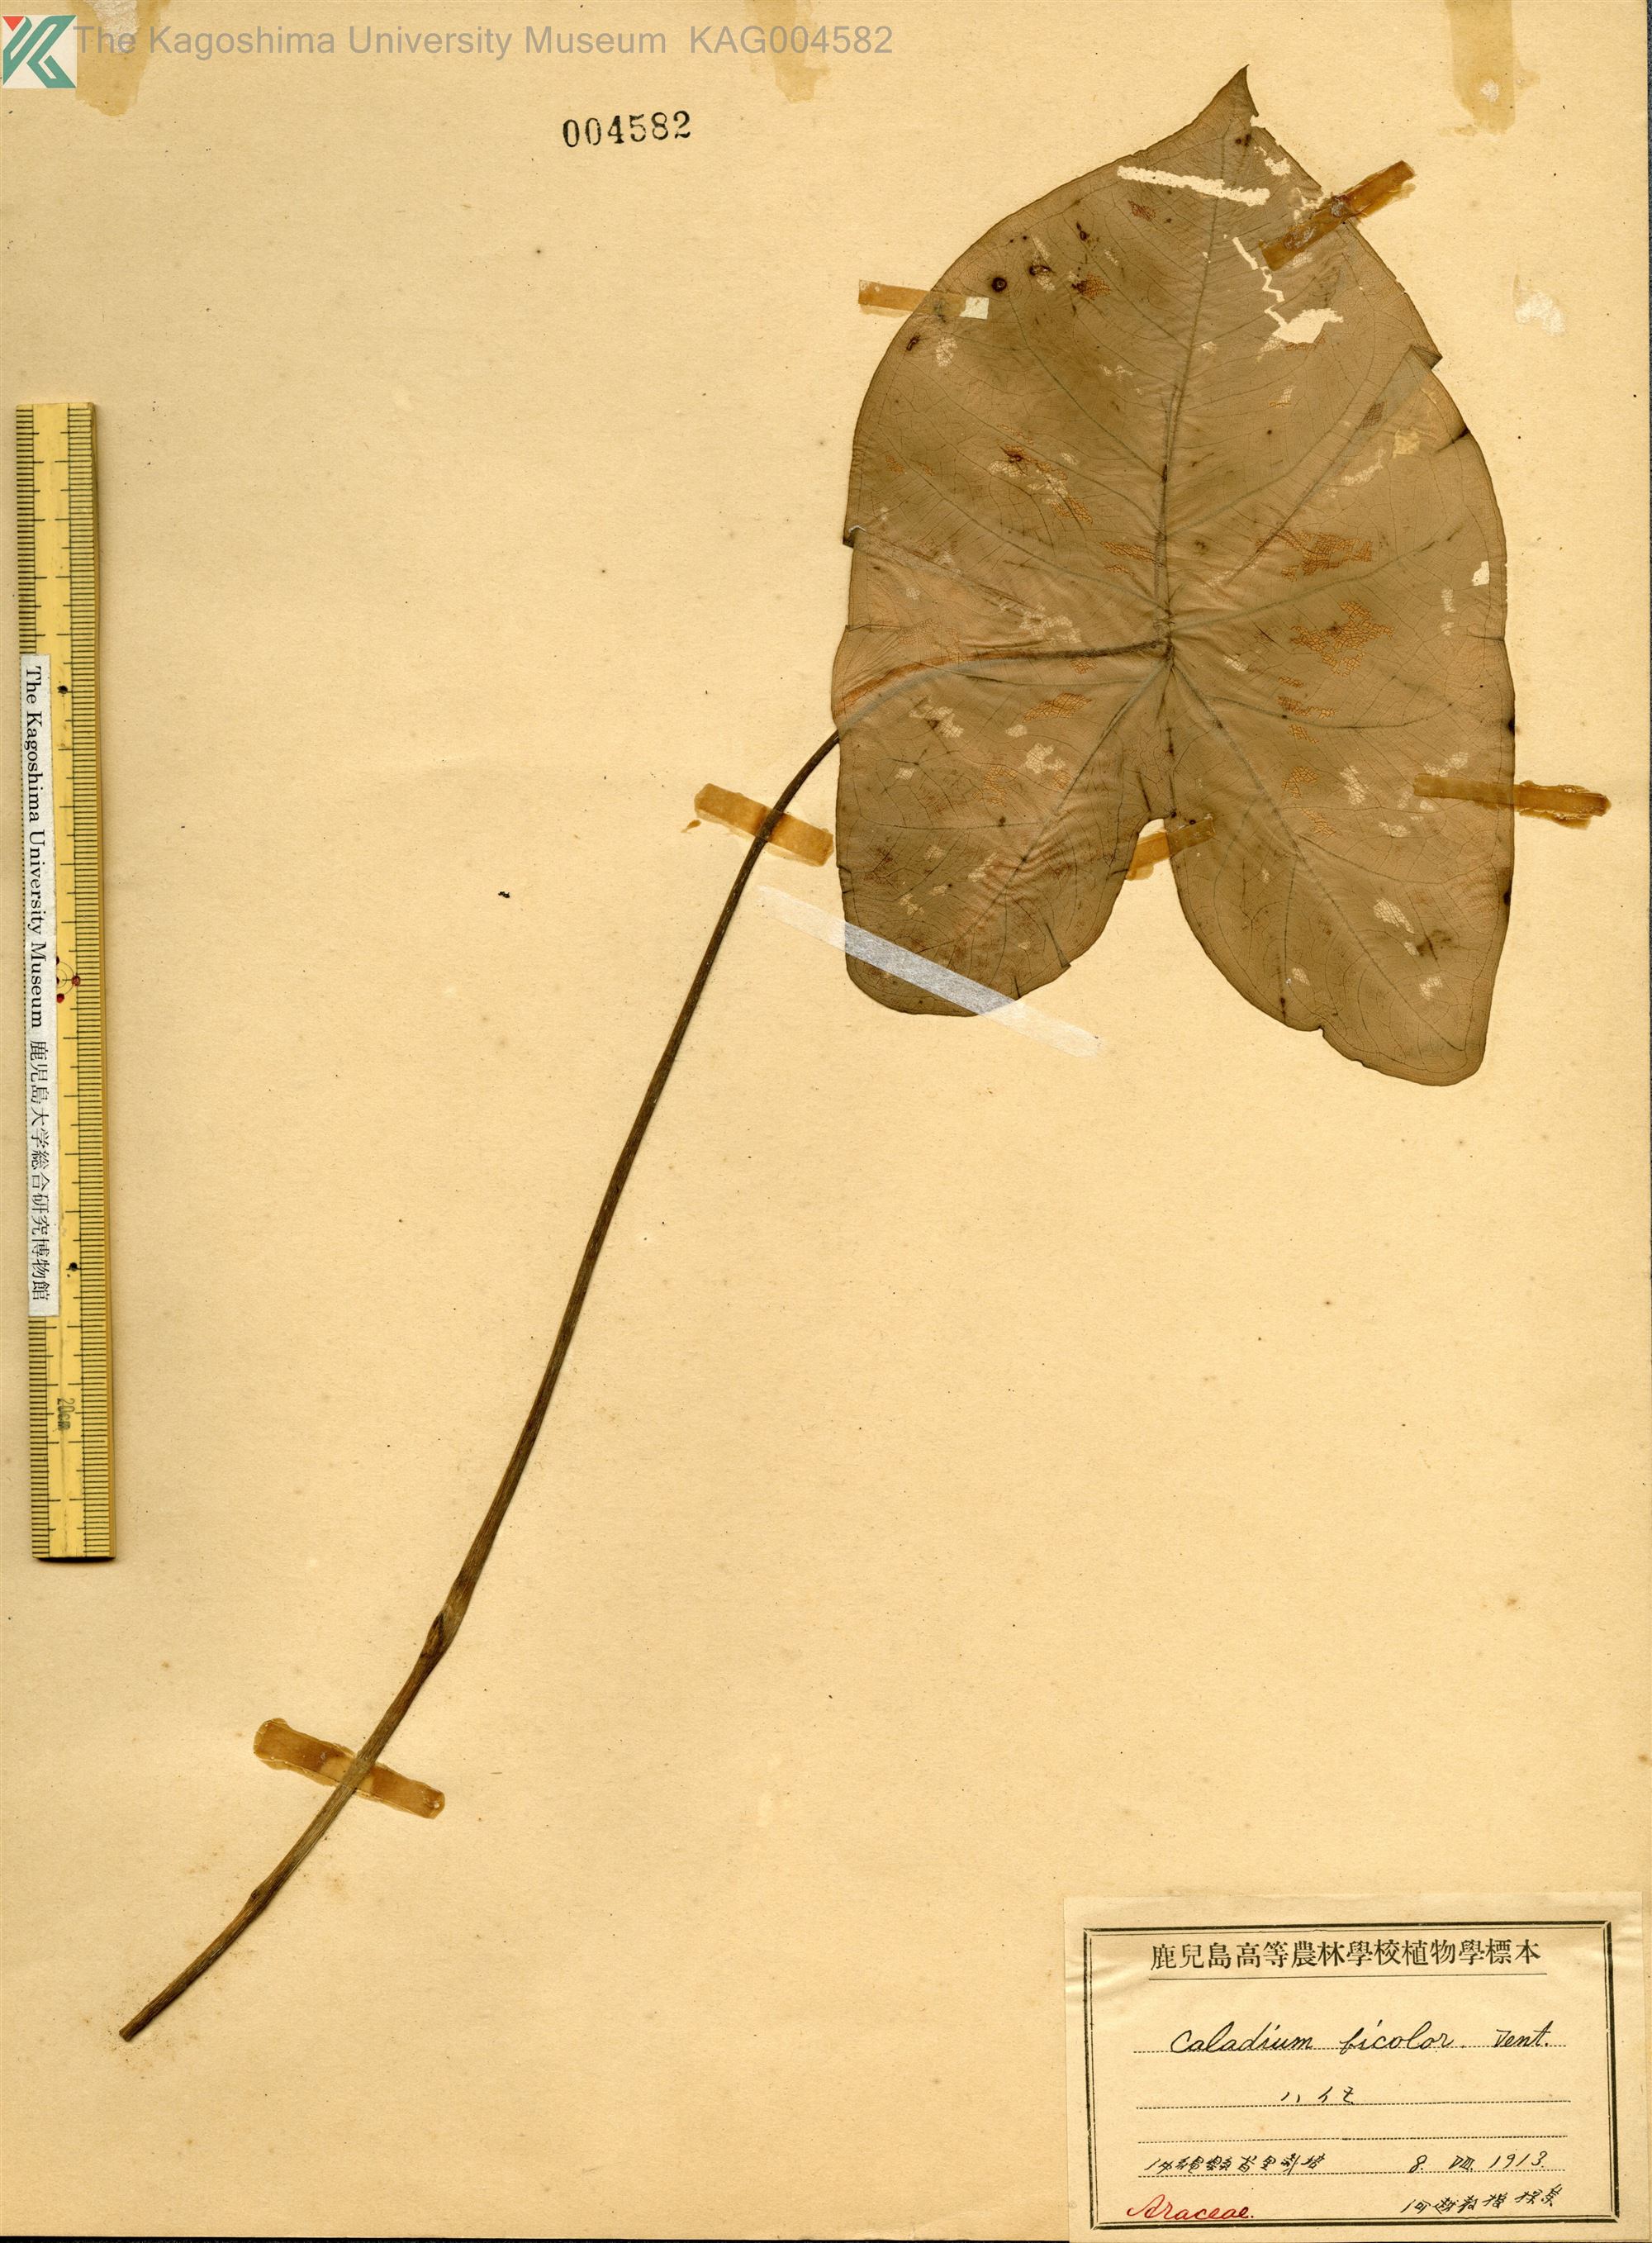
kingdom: Plantae
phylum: Tracheophyta
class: Liliopsida
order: Alismatales
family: Araceae
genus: Caladium
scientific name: Caladium bicolor
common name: Artist's pallet
